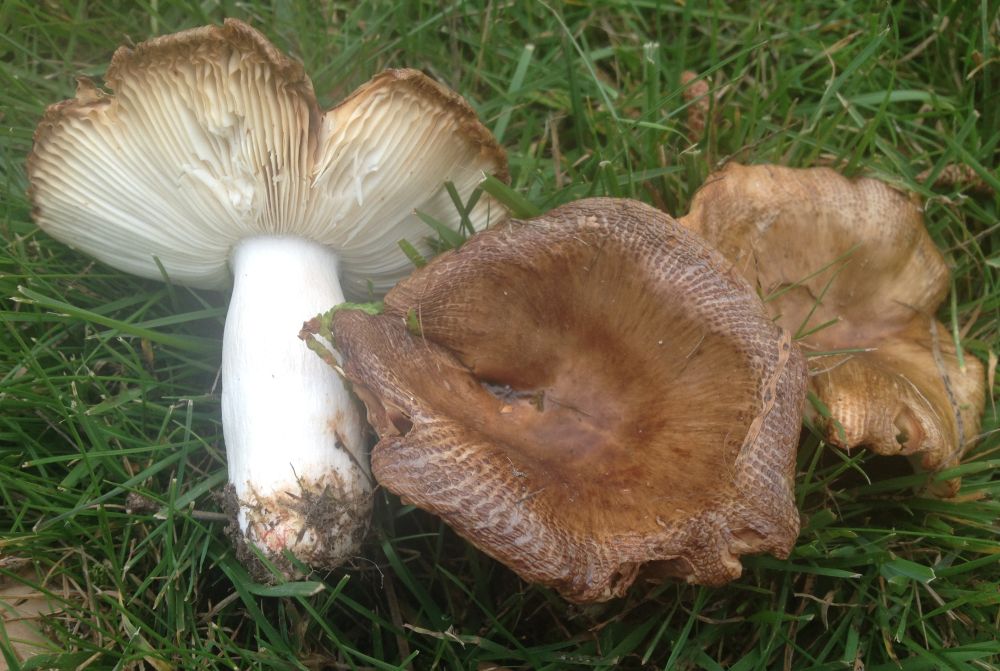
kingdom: Fungi
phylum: Basidiomycota
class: Agaricomycetes
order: Russulales
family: Russulaceae
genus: Russula
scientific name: Russula recondita
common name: mild kam-skørhat
